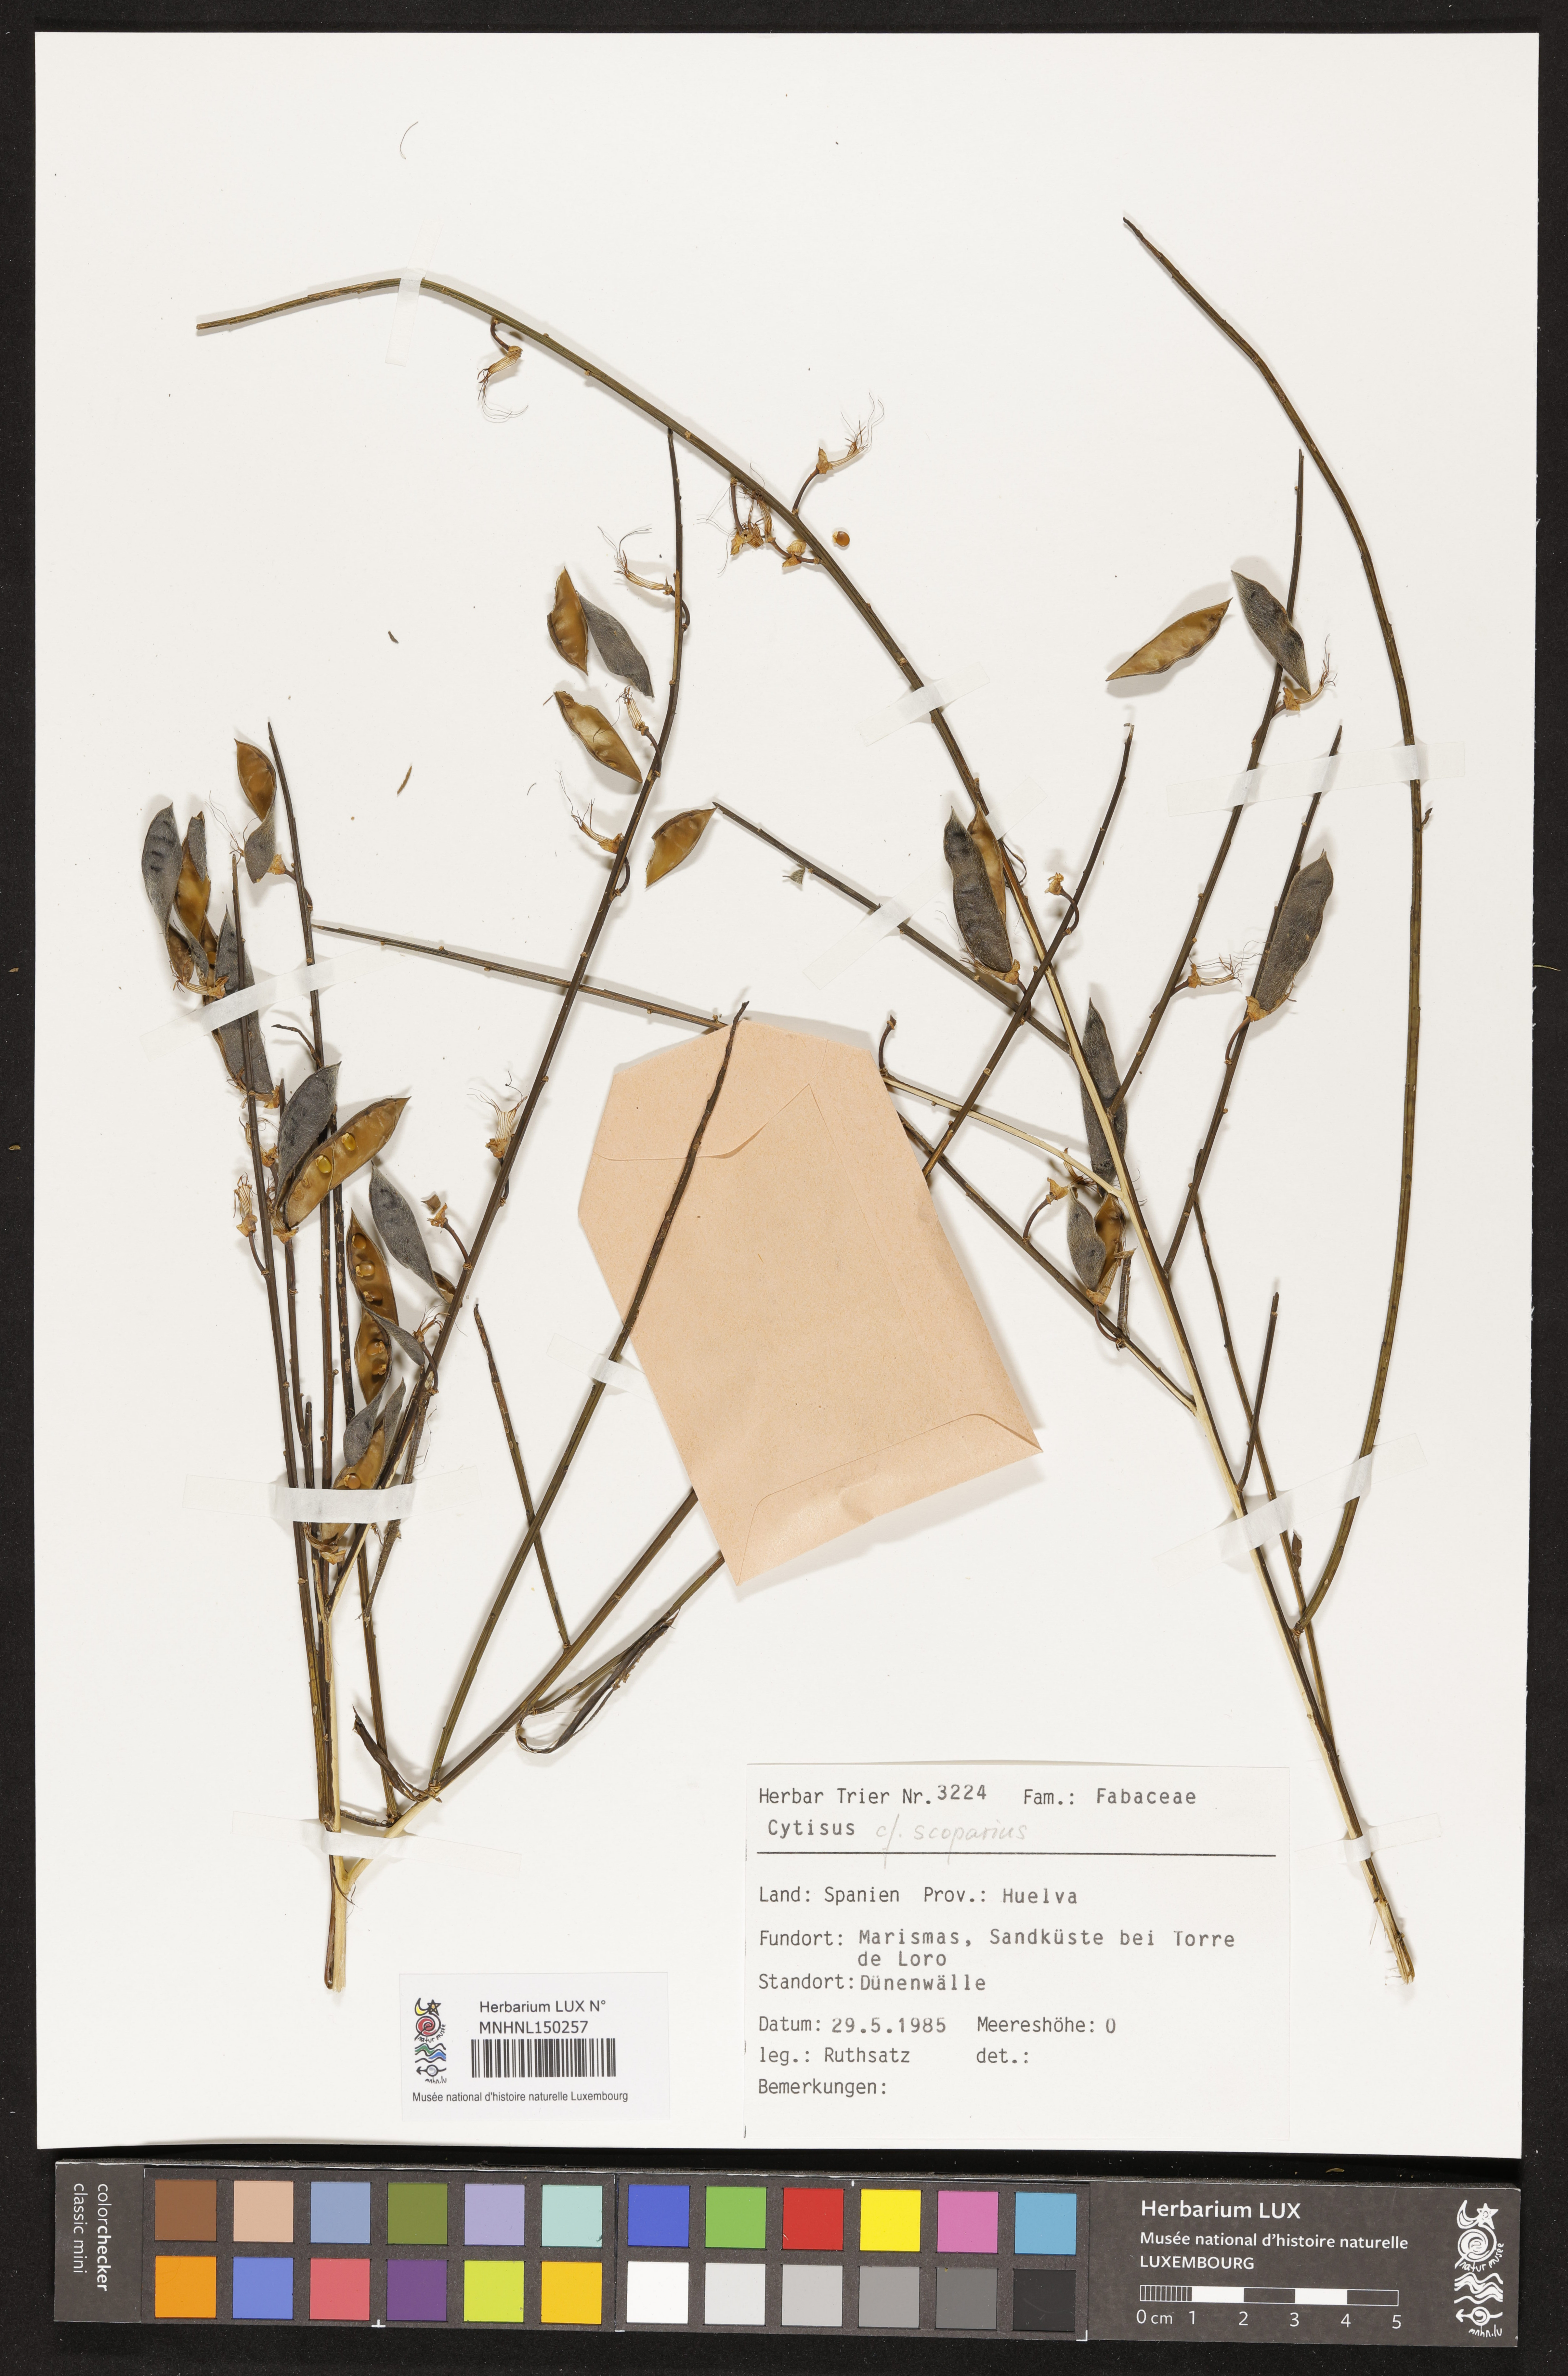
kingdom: Plantae
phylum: Tracheophyta
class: Magnoliopsida
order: Fabales
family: Fabaceae
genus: Cytisus
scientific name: Cytisus scoparius
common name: Scotch broom
